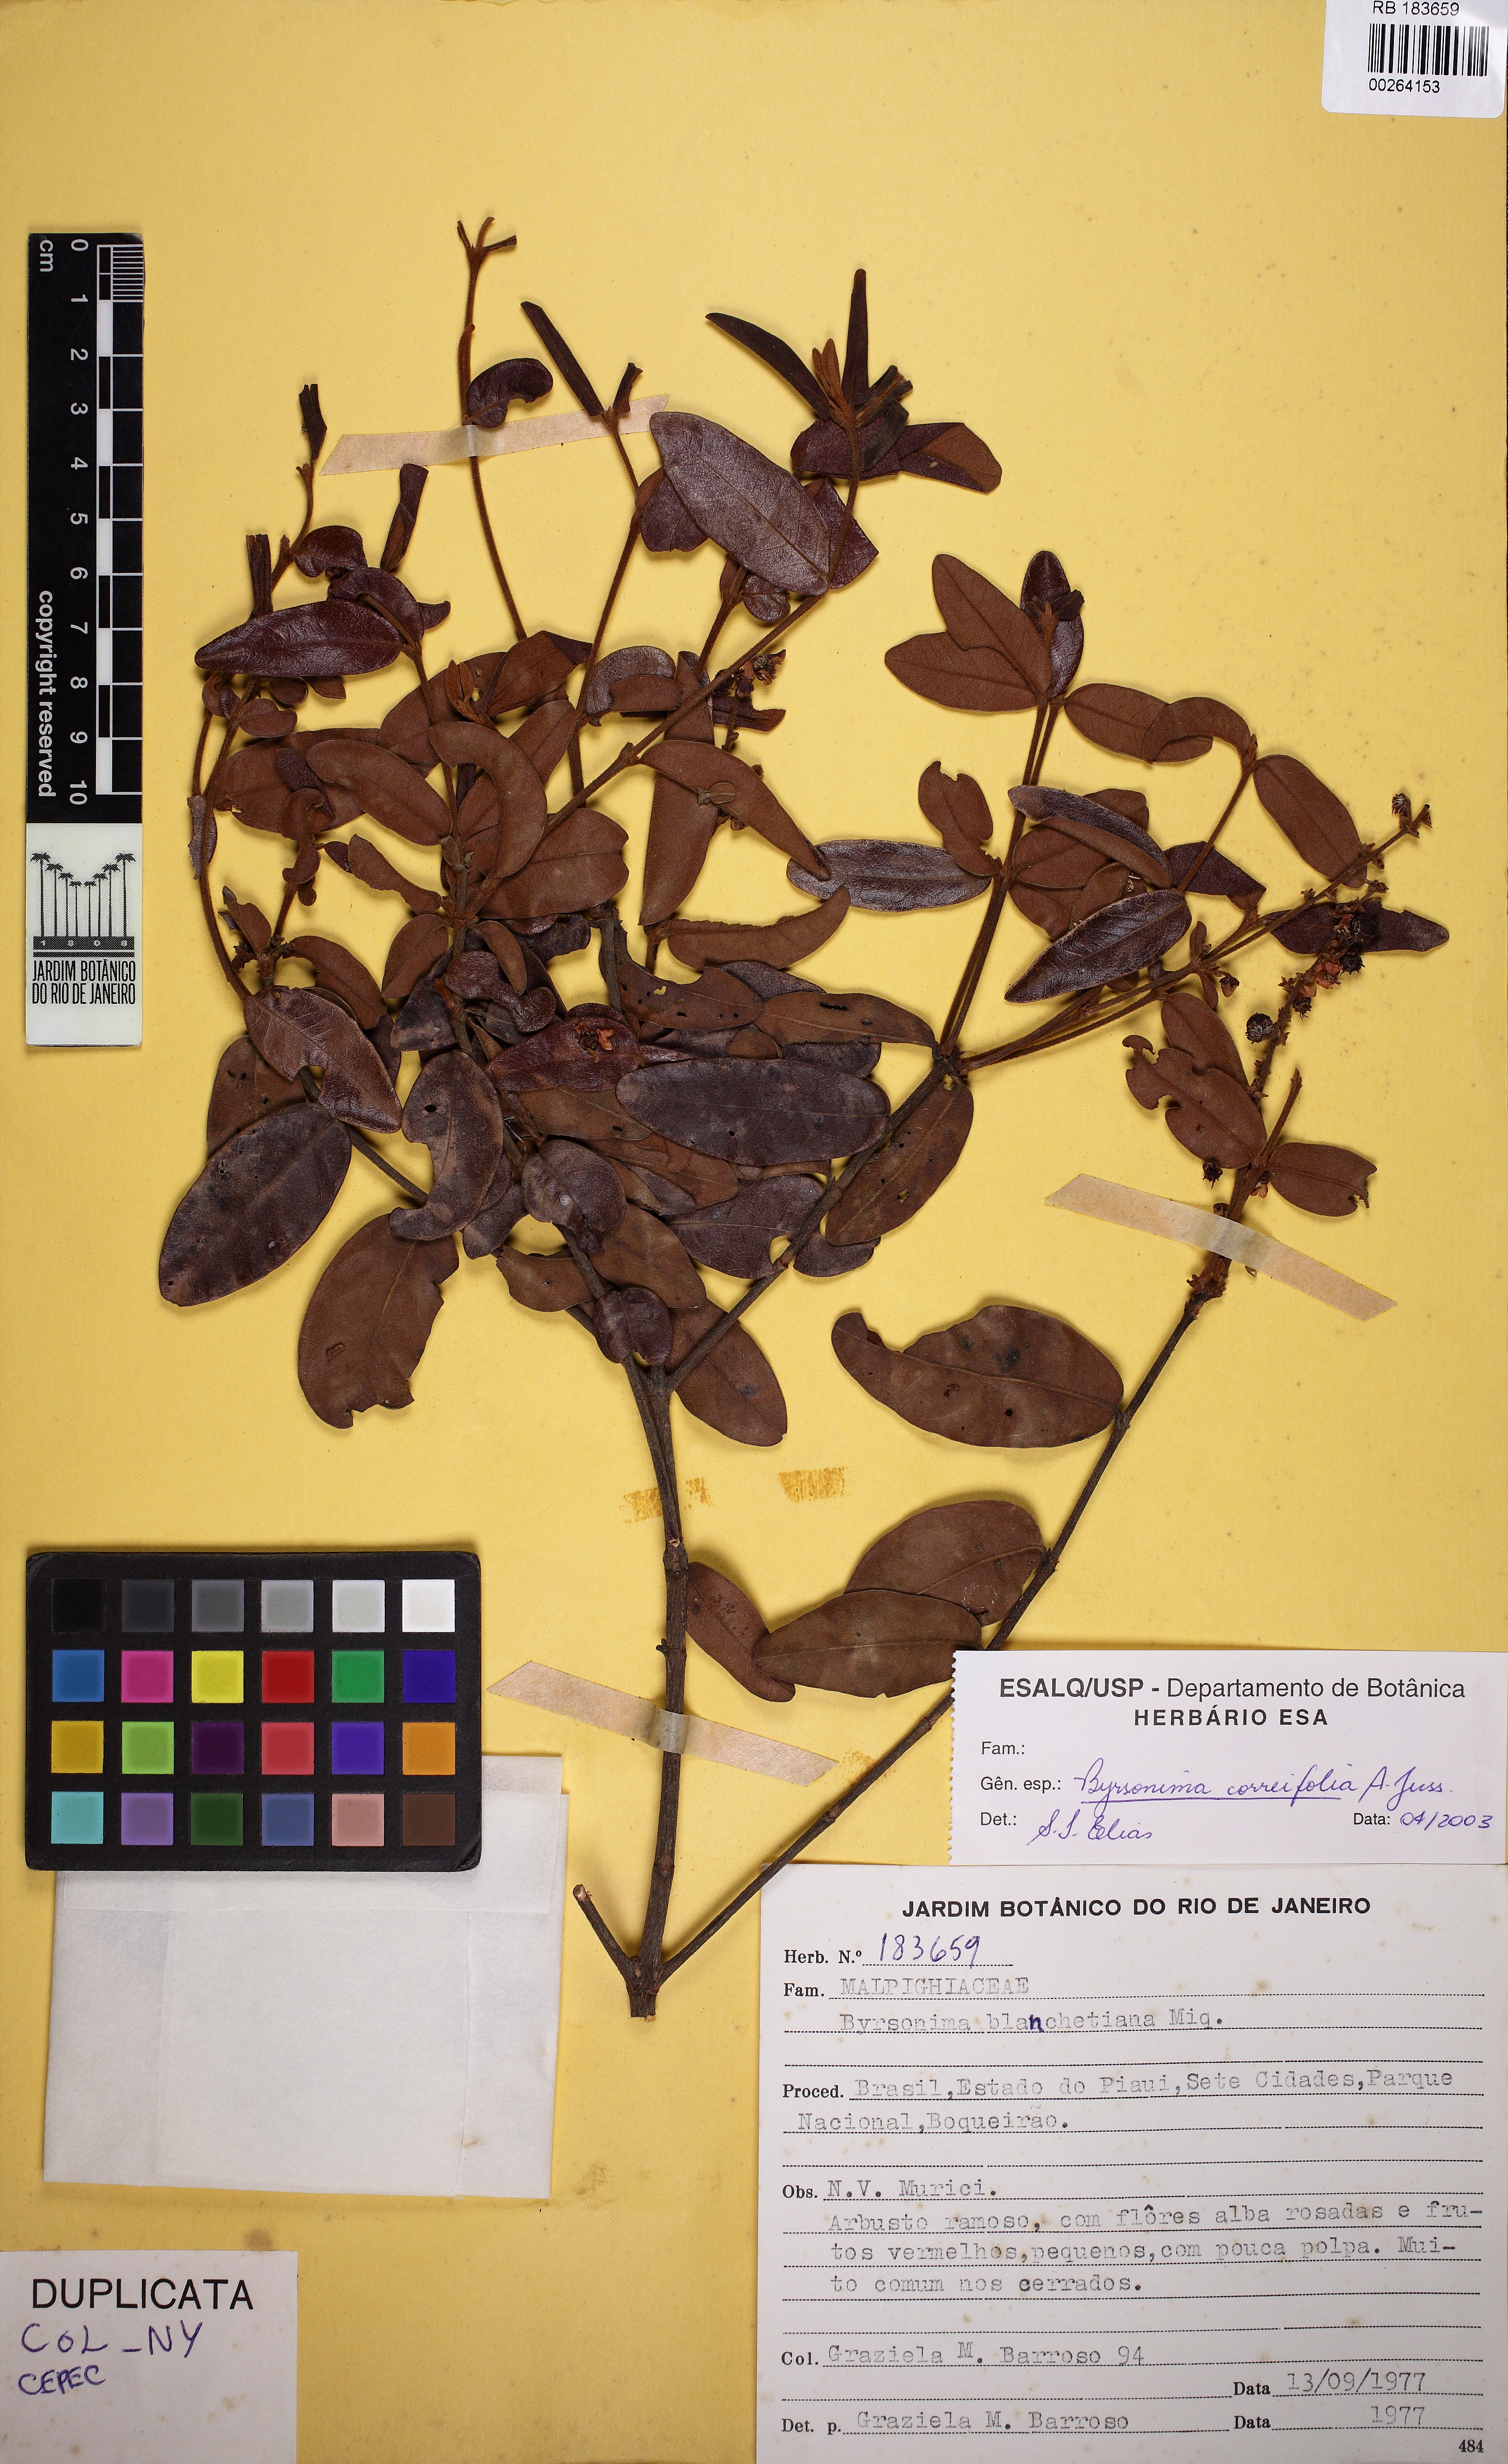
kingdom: Plantae
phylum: Tracheophyta
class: Magnoliopsida
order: Malpighiales
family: Malpighiaceae
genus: Byrsonima
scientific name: Byrsonima correifolia
